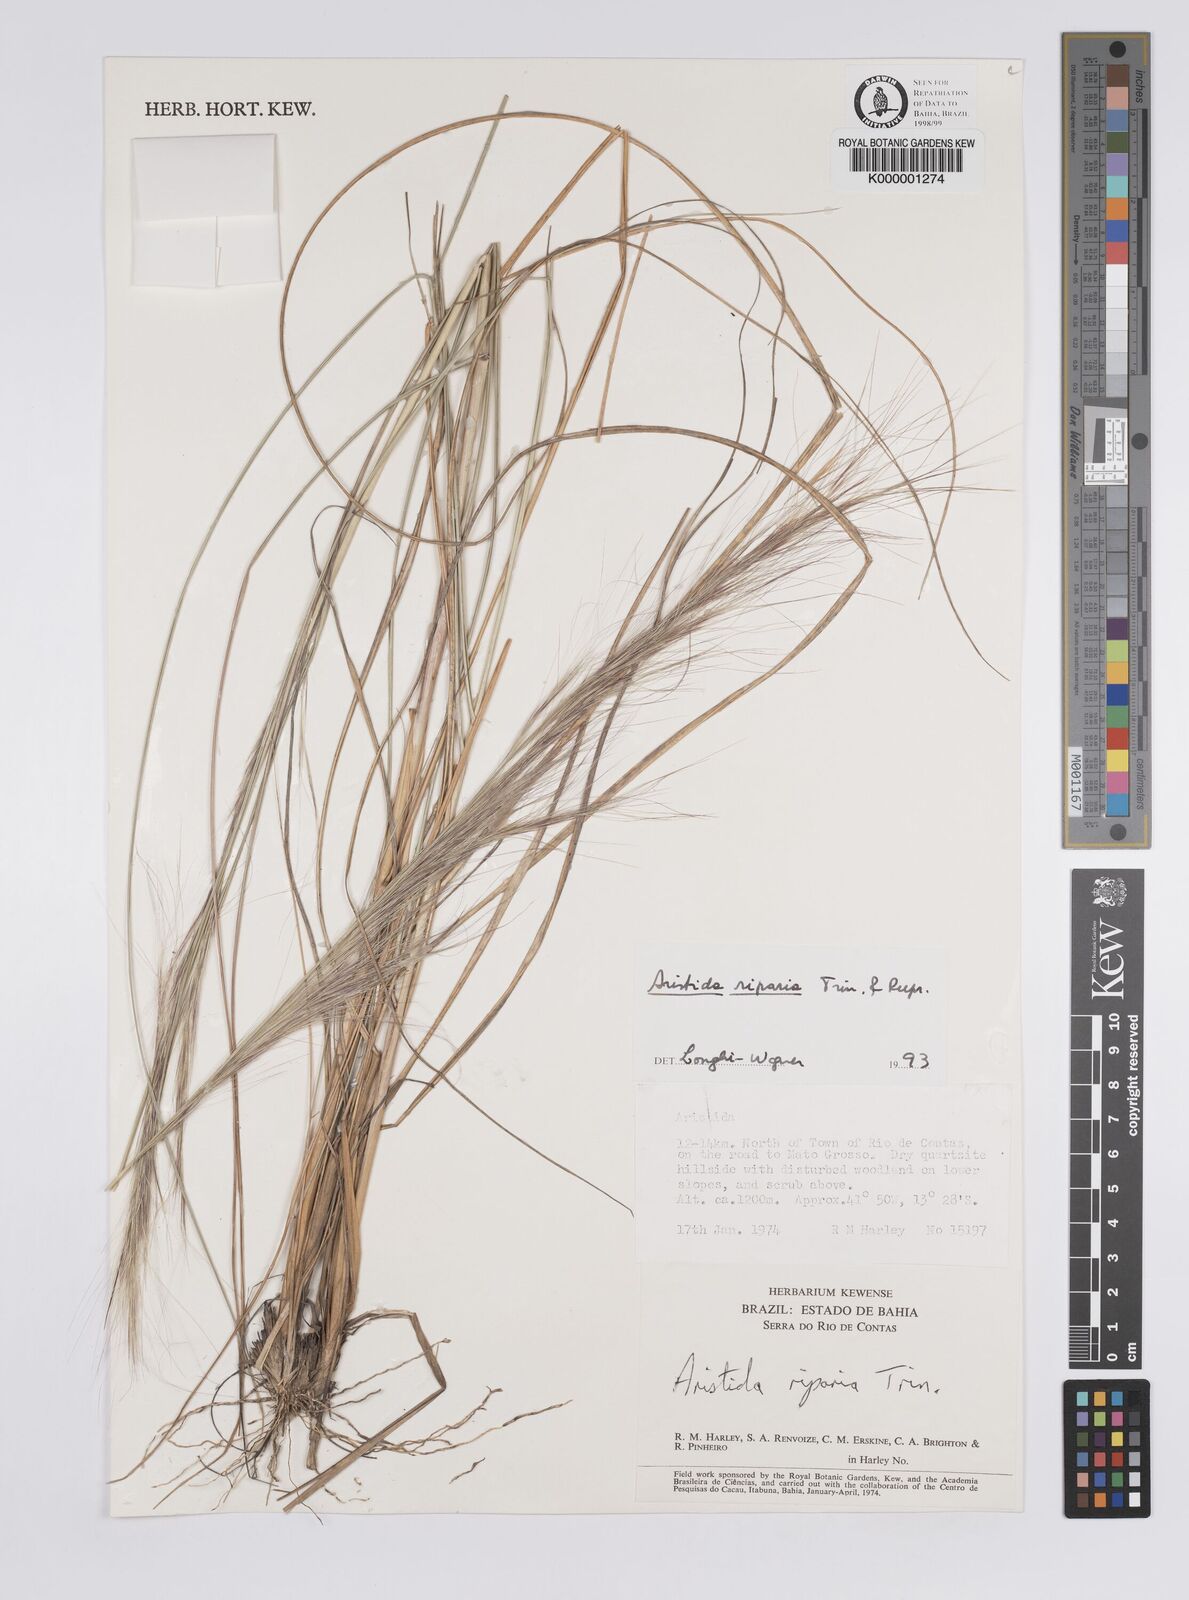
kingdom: Plantae
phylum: Tracheophyta
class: Liliopsida
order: Poales
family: Poaceae
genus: Aristida
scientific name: Aristida riparia
